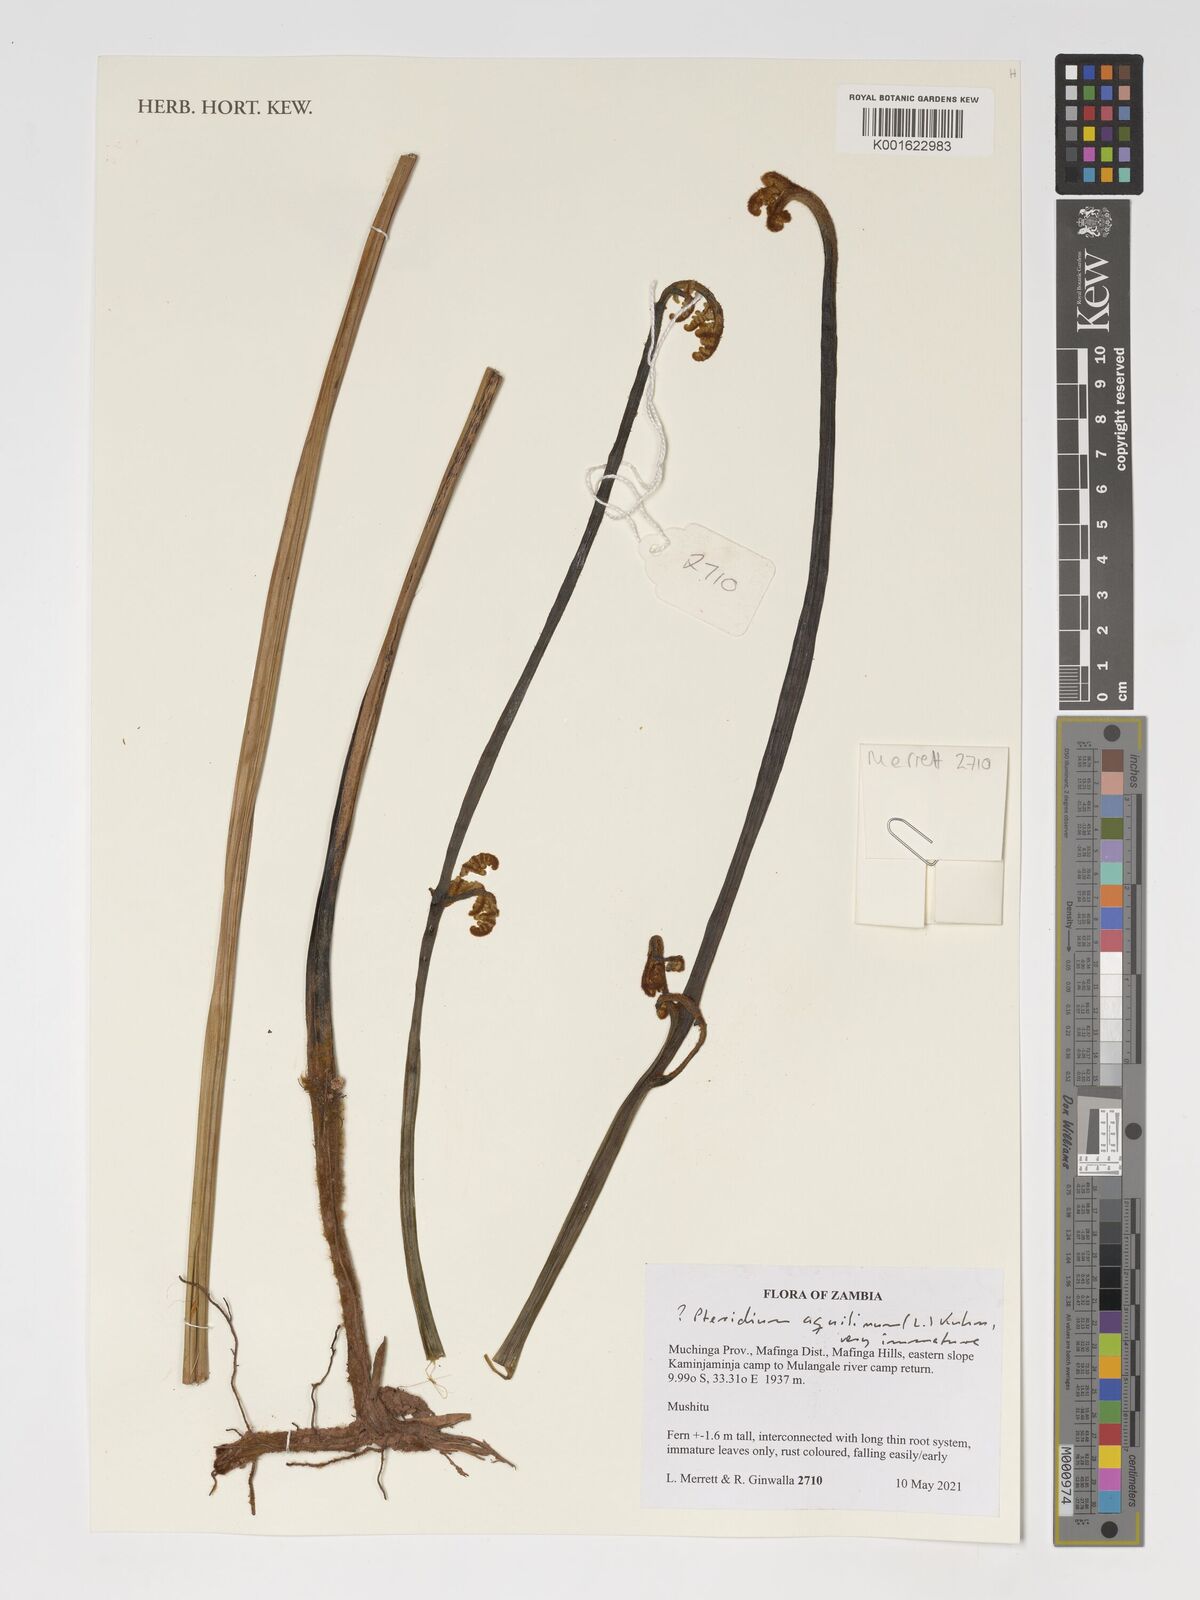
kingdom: Plantae
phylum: Tracheophyta
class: Polypodiopsida
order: Polypodiales
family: Dennstaedtiaceae
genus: Pteridium
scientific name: Pteridium aquilinum
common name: Bracken
